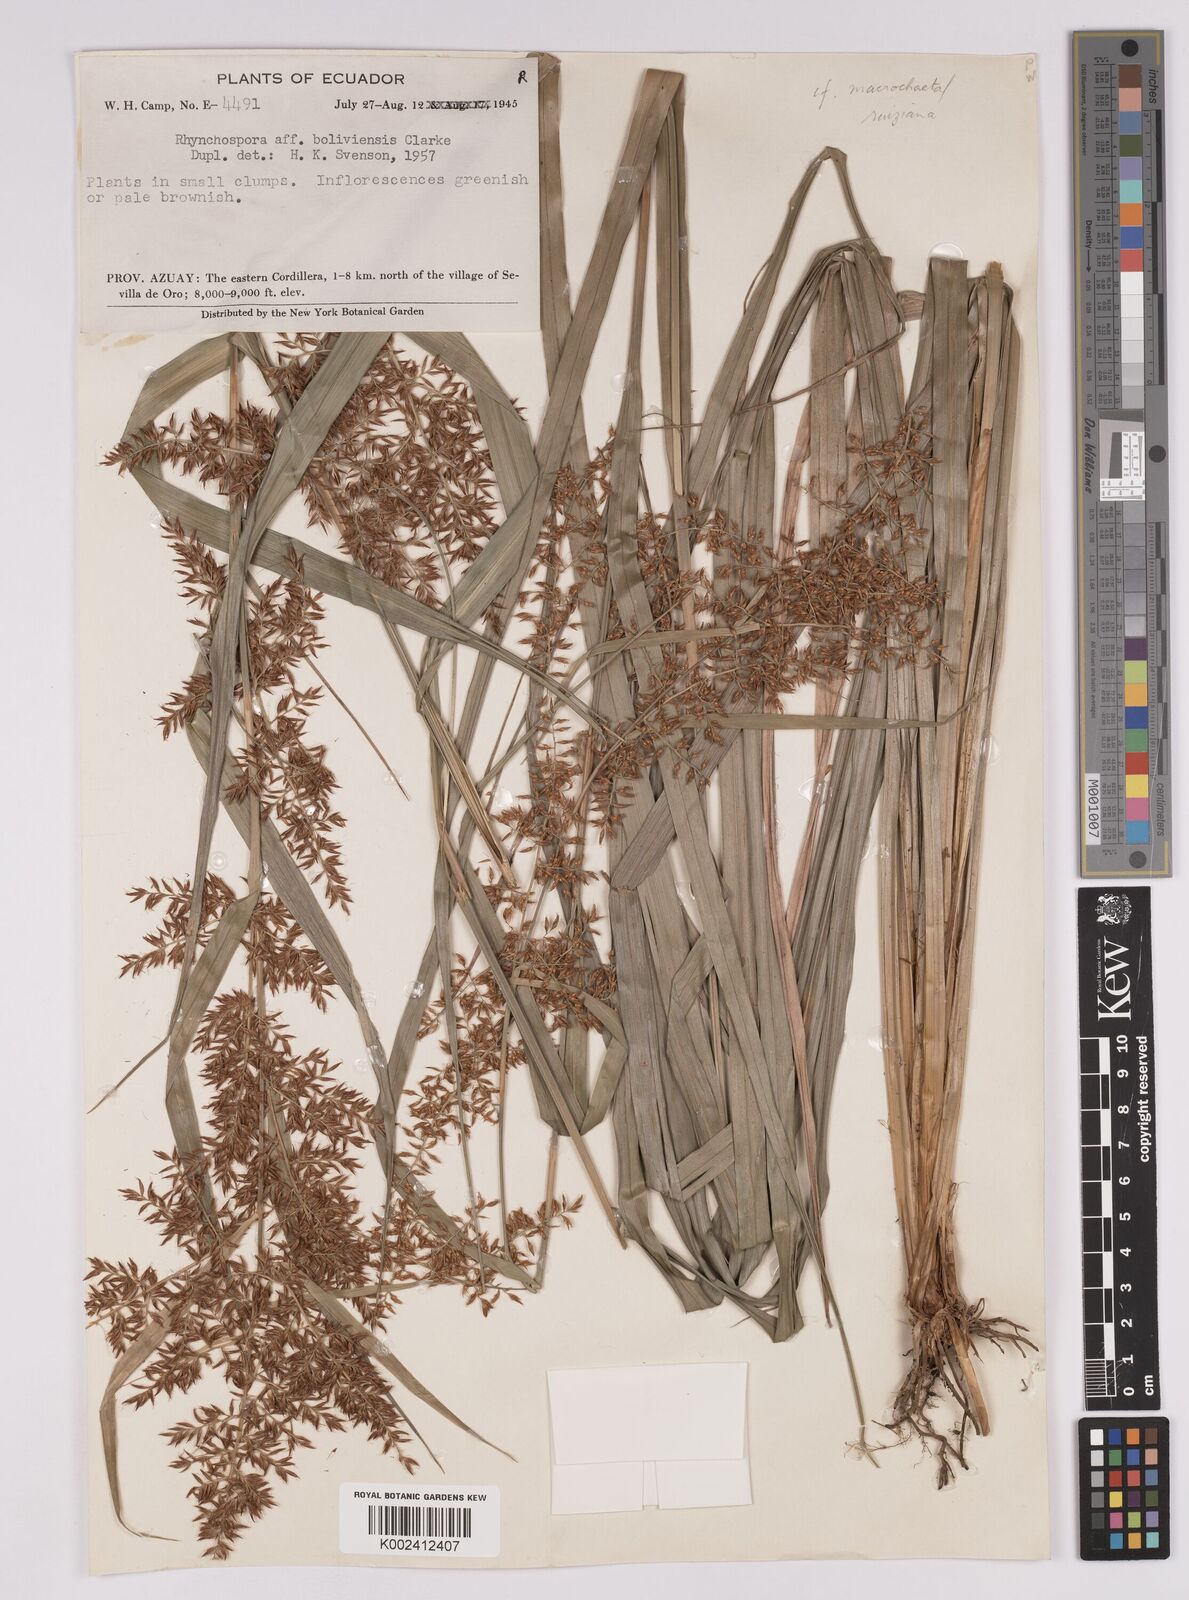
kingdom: Plantae
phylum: Tracheophyta
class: Liliopsida
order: Poales
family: Cyperaceae
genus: Rhynchospora
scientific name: Rhynchospora ruiziana
